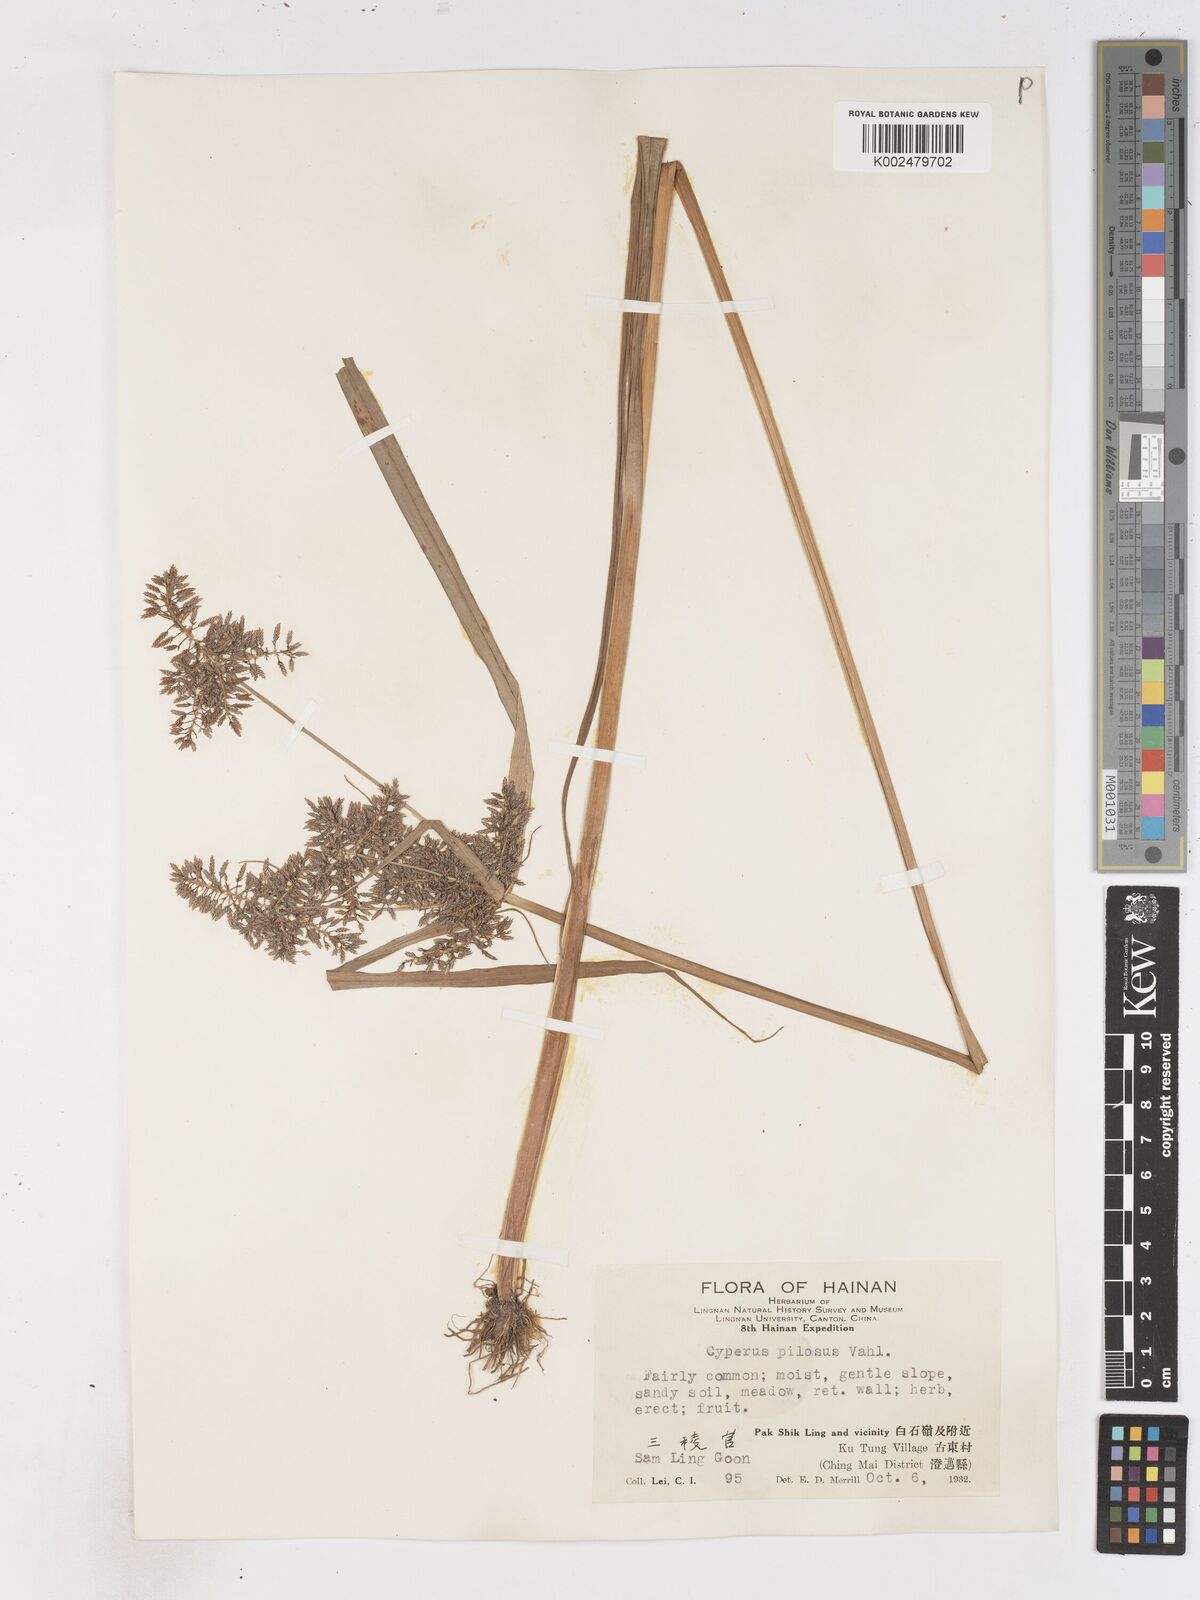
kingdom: Plantae
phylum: Tracheophyta
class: Liliopsida
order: Poales
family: Cyperaceae
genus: Cyperus
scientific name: Cyperus pilosus
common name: Fuzzy flatsedge
